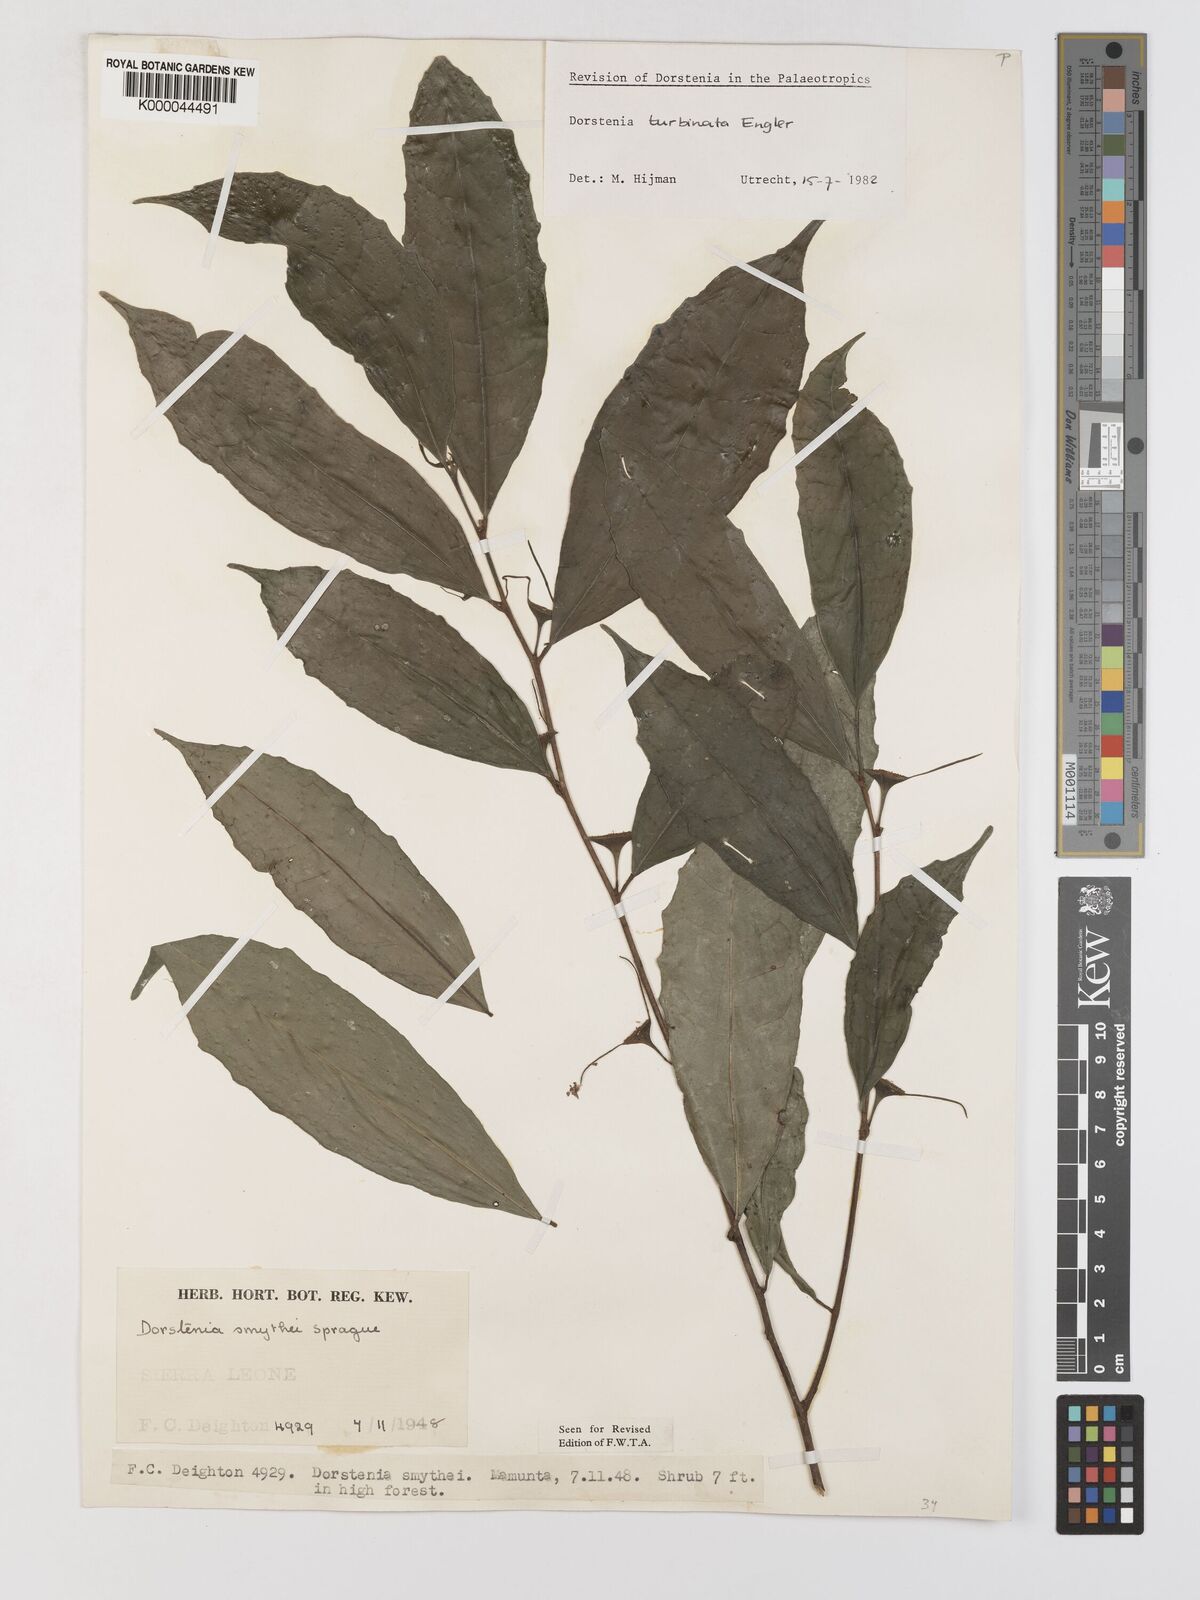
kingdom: Plantae
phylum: Tracheophyta
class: Magnoliopsida
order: Rosales
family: Moraceae
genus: Hijmania
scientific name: Hijmania turbinata
